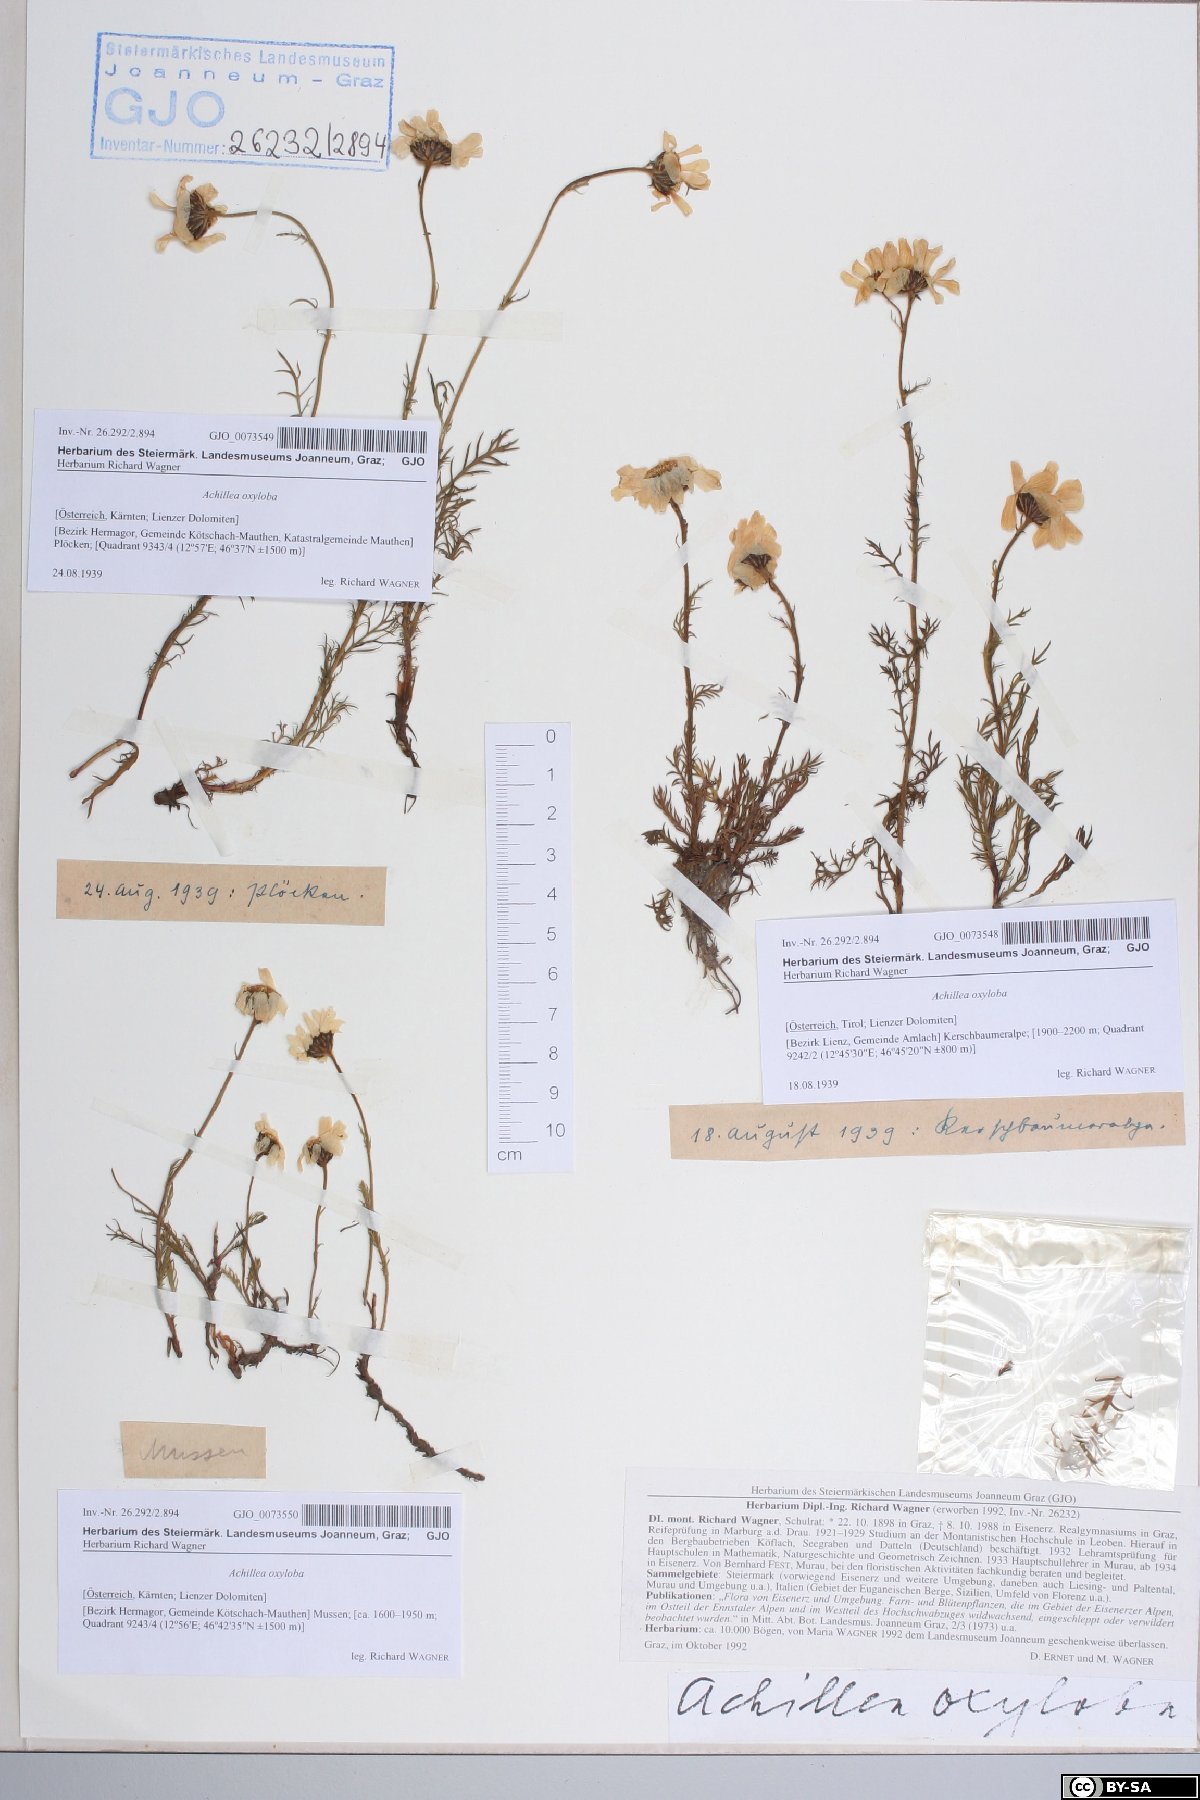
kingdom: Plantae
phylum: Tracheophyta
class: Magnoliopsida
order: Asterales
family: Asteraceae
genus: Achillea
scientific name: Achillea oxyloba
